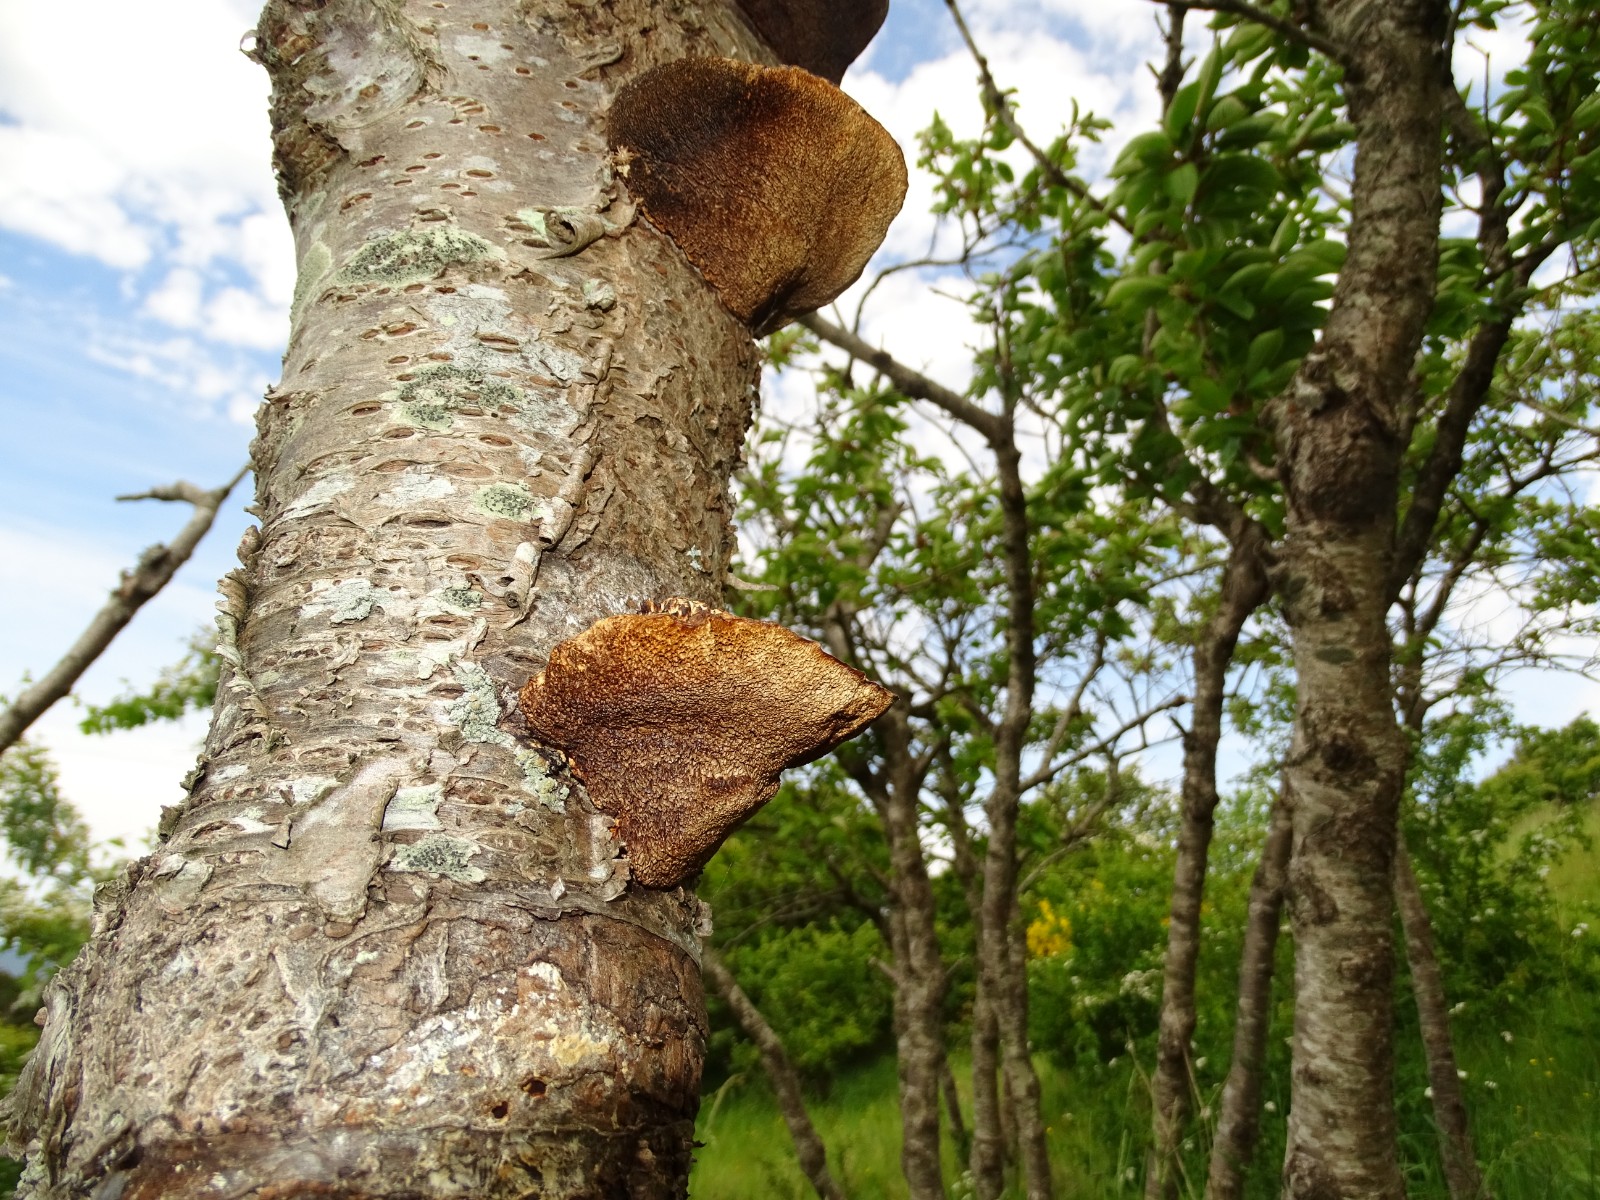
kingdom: Fungi
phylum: Basidiomycota
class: Agaricomycetes
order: Polyporales
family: Polyporaceae
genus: Daedaleopsis
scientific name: Daedaleopsis confragosa
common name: rødmende læderporesvamp
